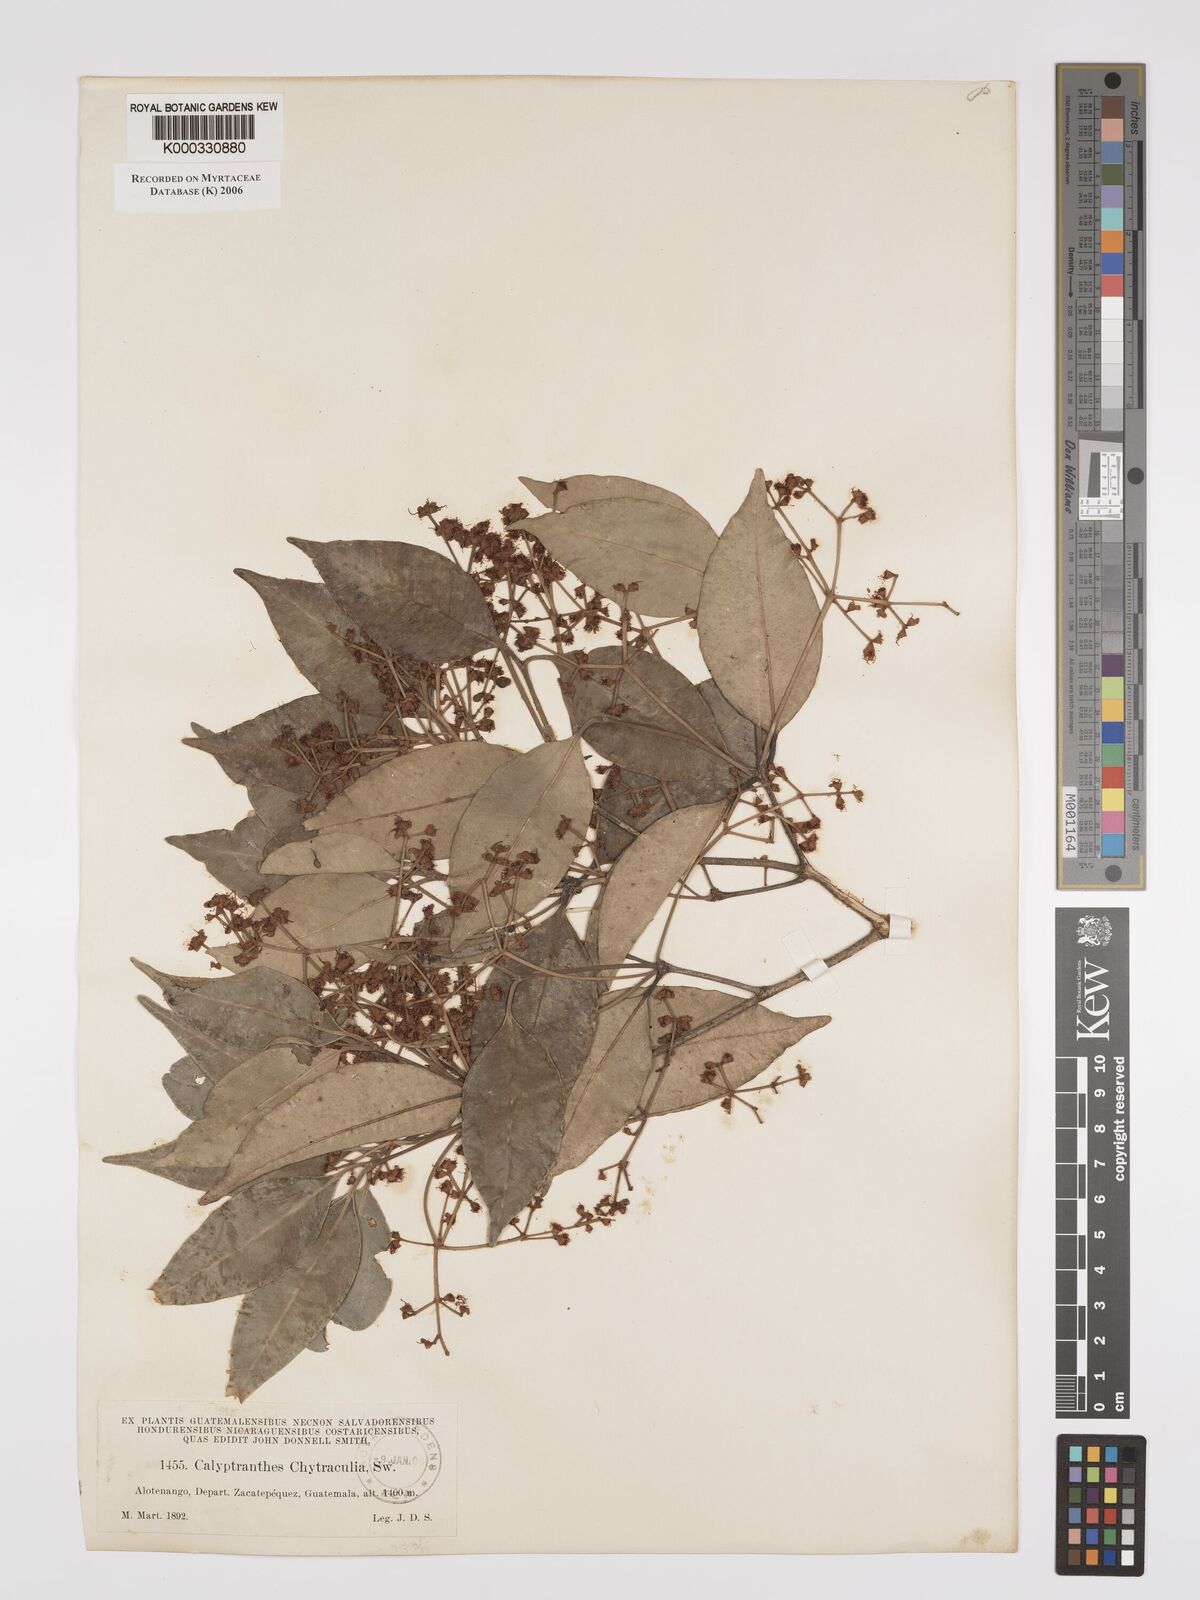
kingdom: Plantae
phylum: Tracheophyta
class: Magnoliopsida
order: Myrtales
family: Myrtaceae
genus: Myrcia
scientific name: Myrcia chytraculia
